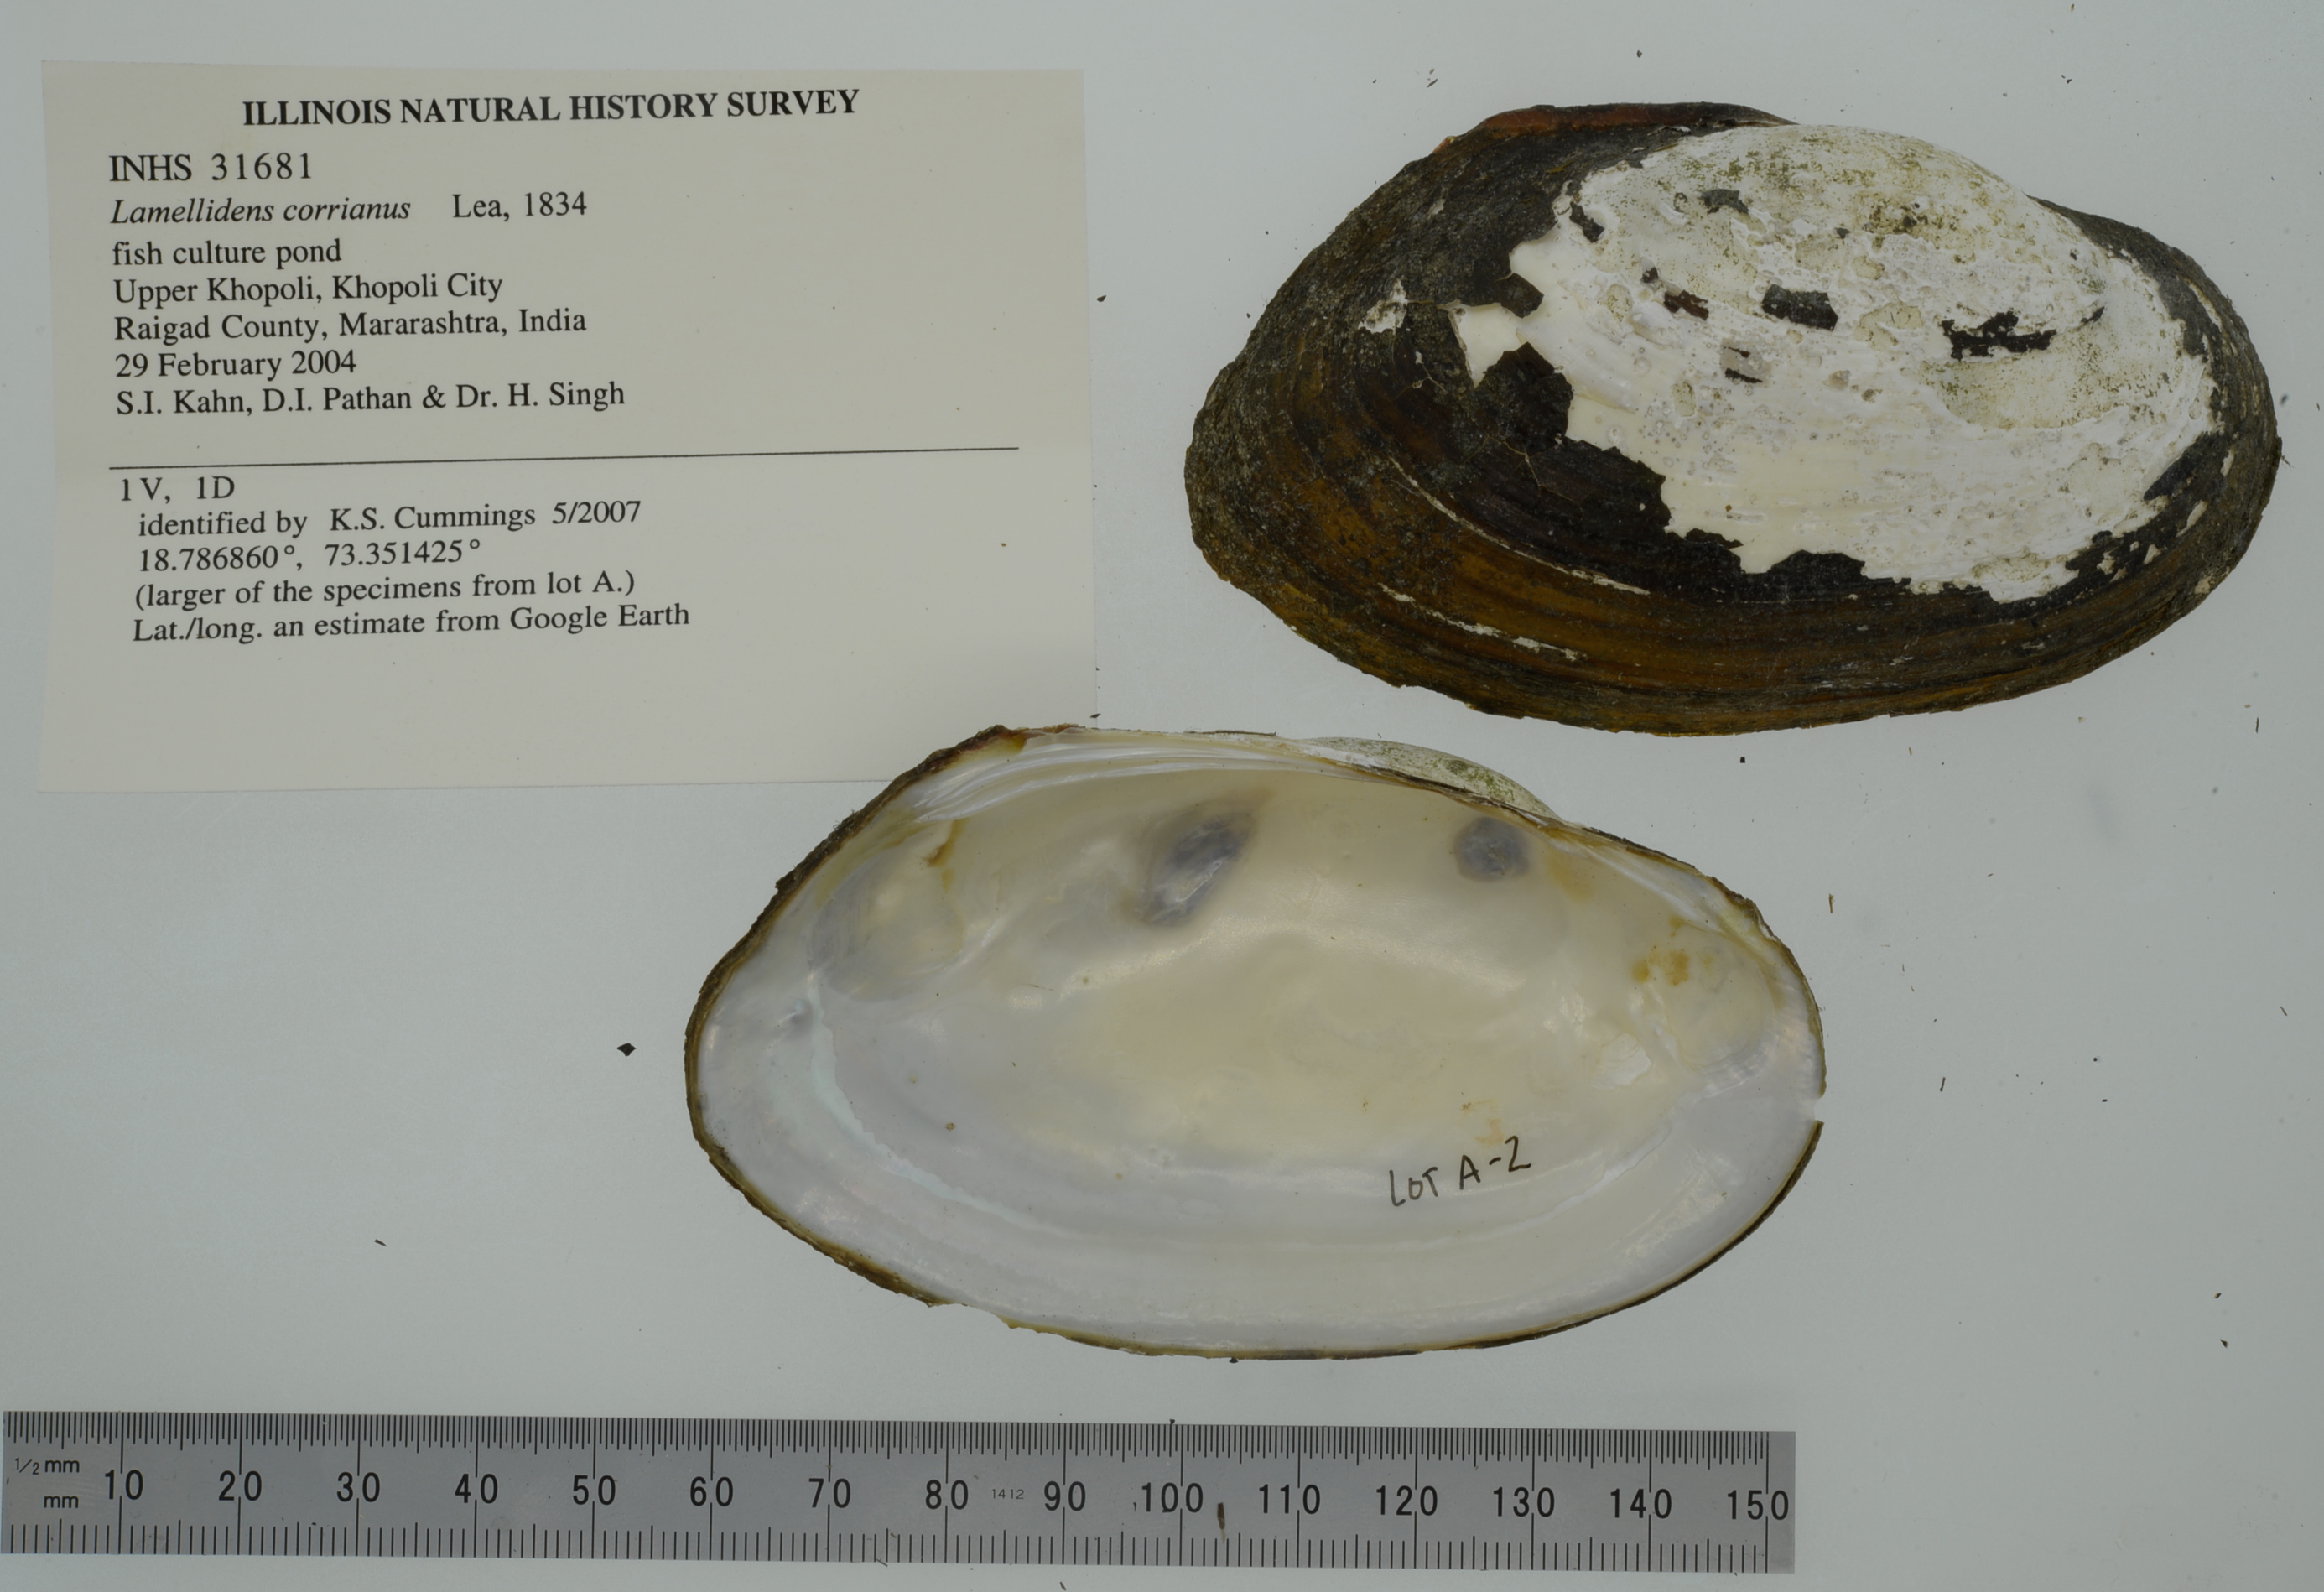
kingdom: Animalia
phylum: Mollusca
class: Bivalvia
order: Unionida
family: Unionidae
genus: Lamellidens
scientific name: Lamellidens corrianus
